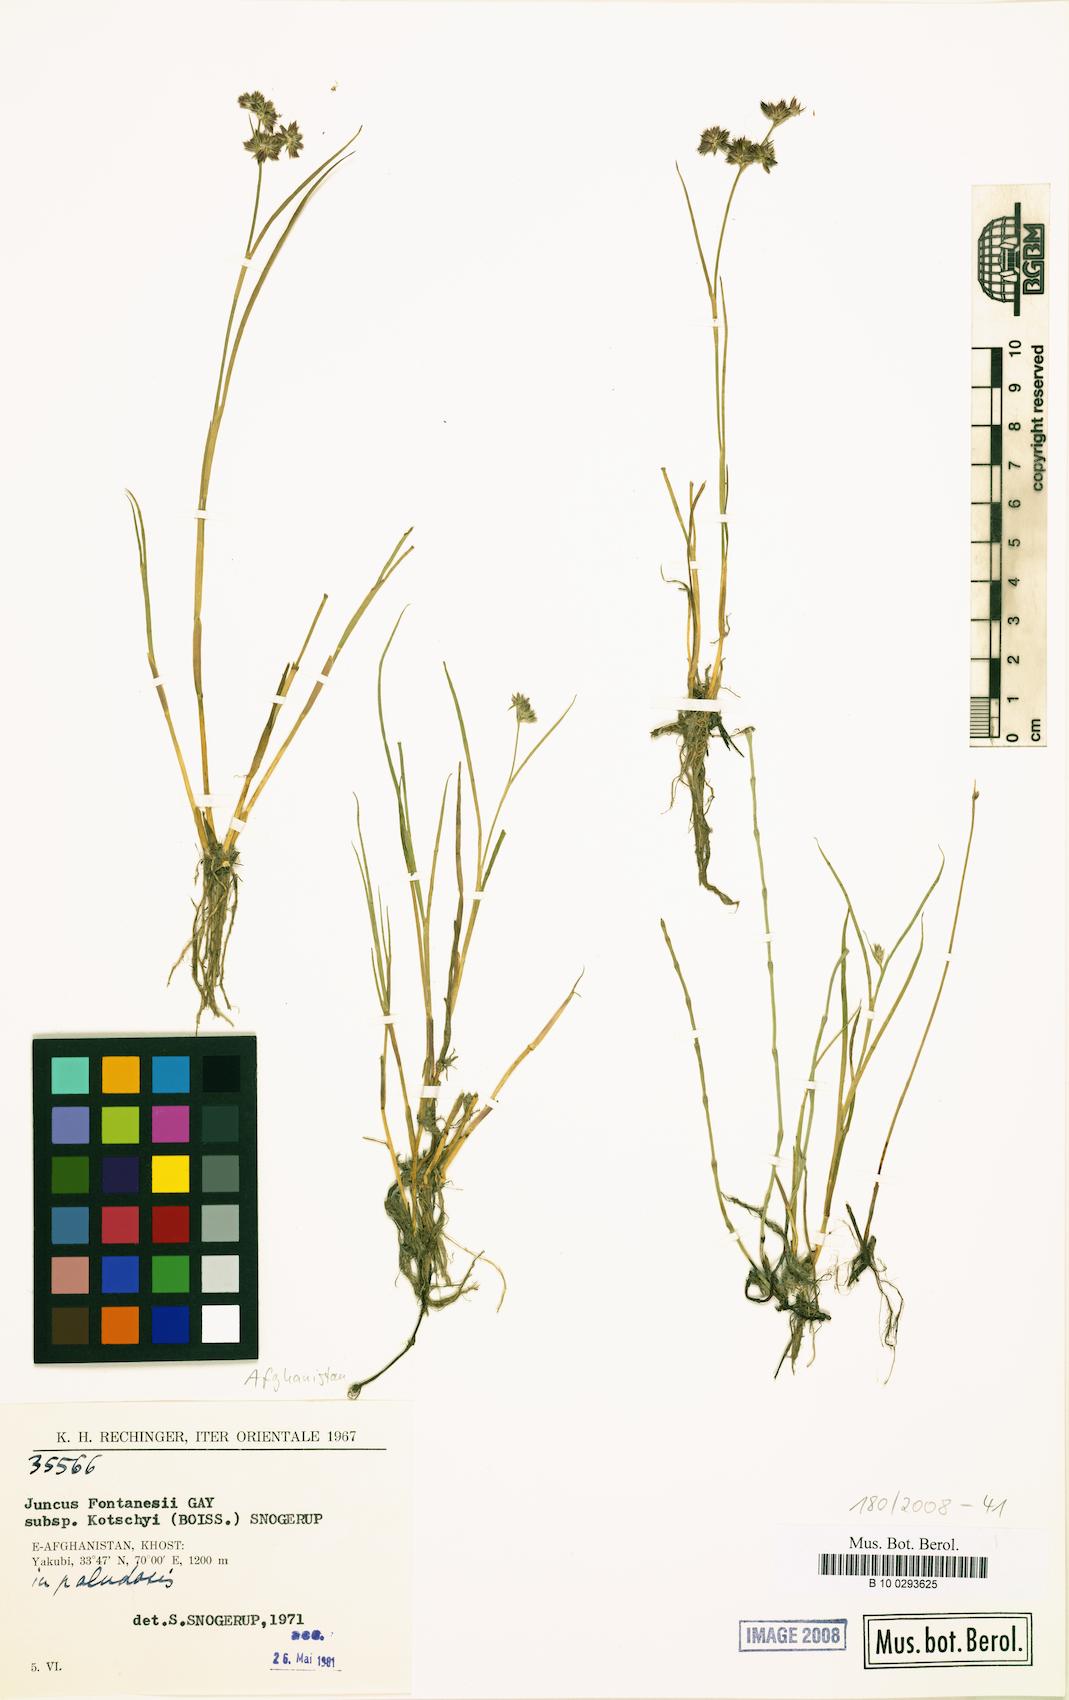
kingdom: Plantae
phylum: Tracheophyta
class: Liliopsida
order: Poales
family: Juncaceae
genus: Juncus
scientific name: Juncus fontanesii
